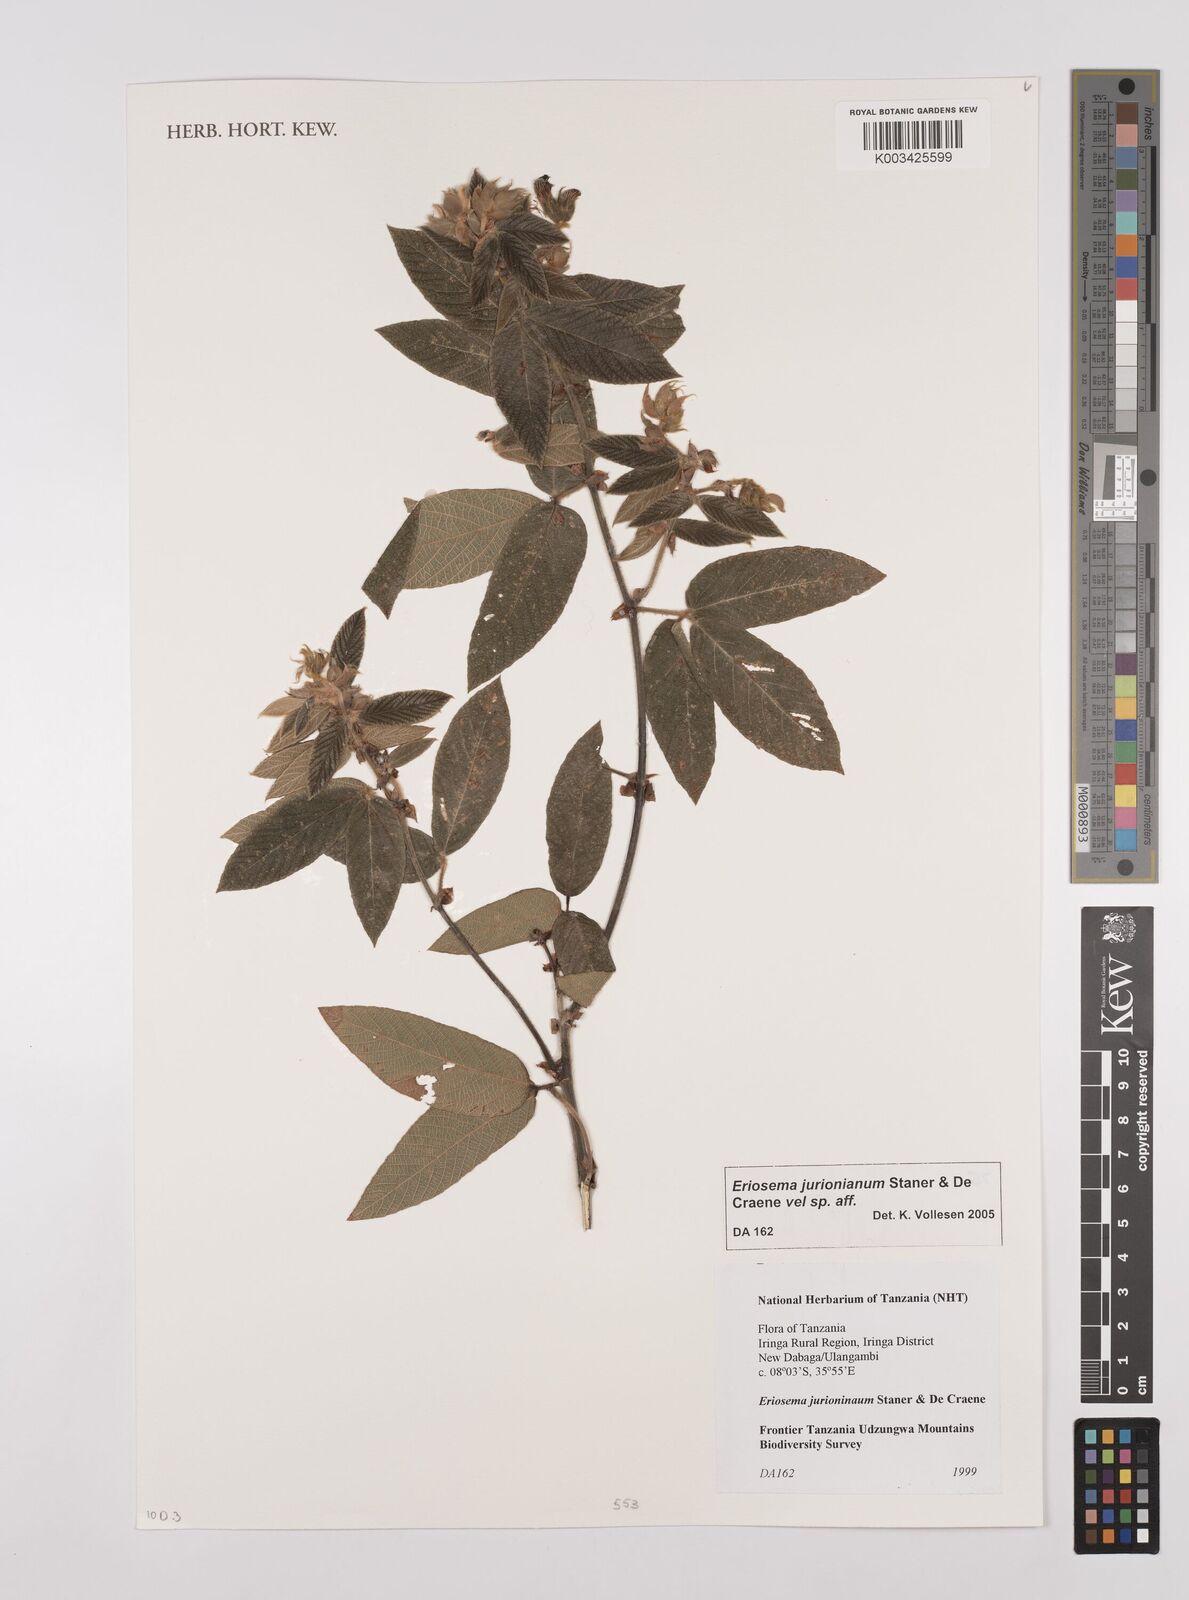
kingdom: Plantae
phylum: Tracheophyta
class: Magnoliopsida
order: Fabales
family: Fabaceae
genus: Eriosema
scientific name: Eriosema jurionianum
